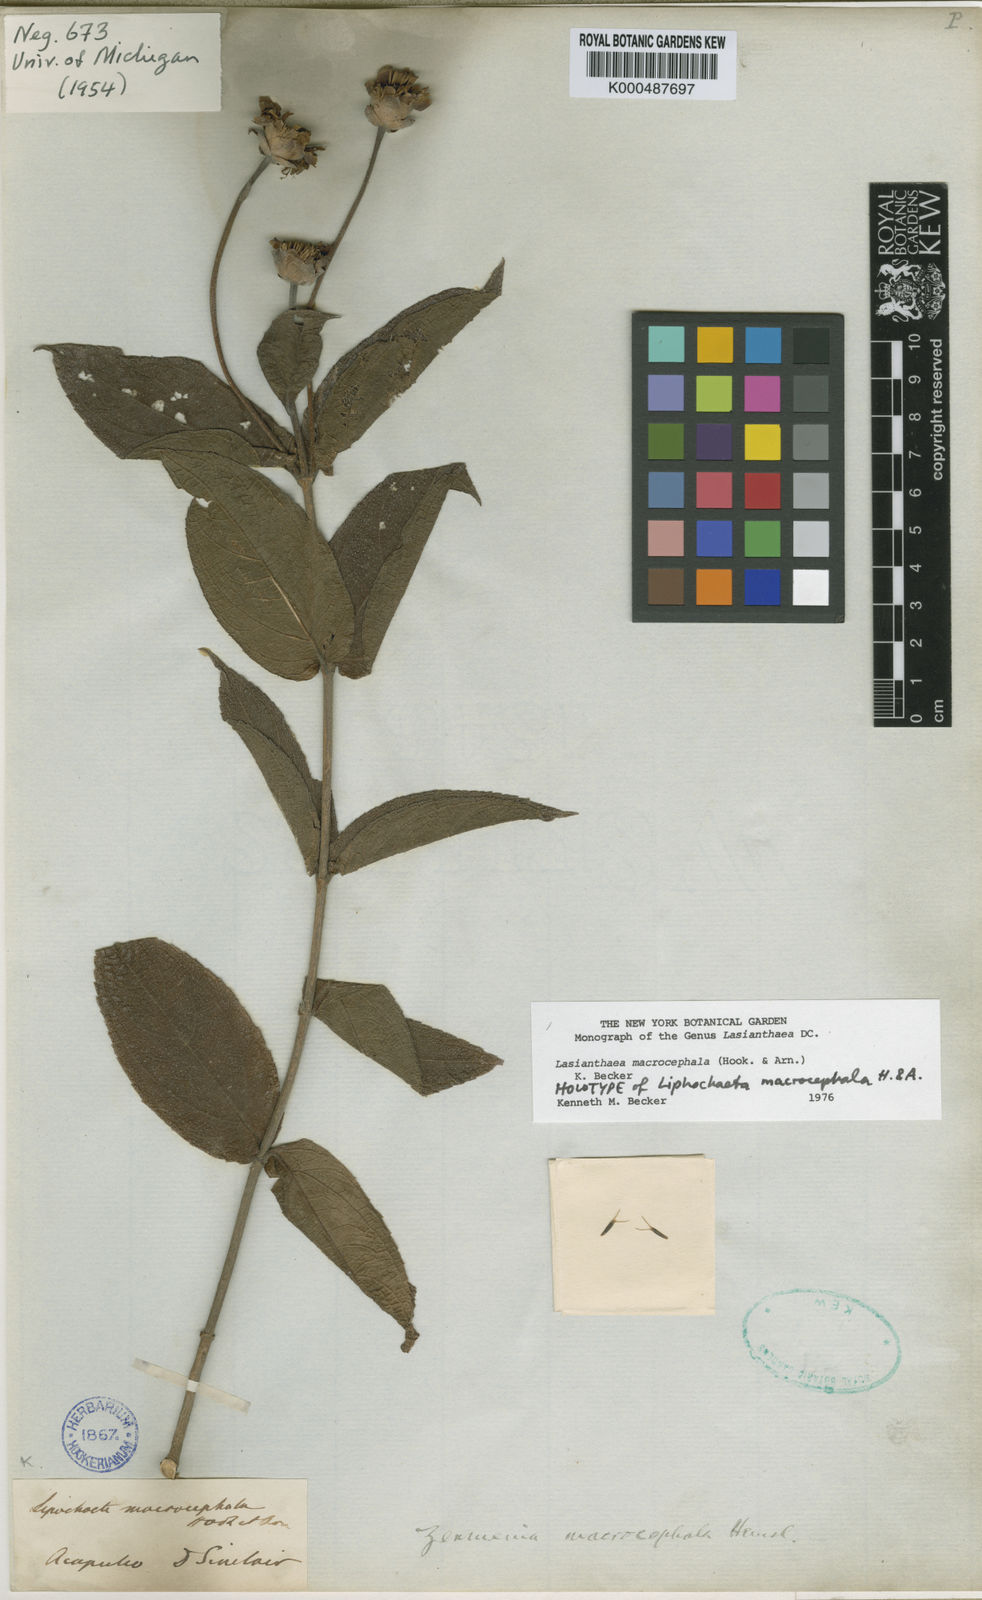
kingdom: Plantae
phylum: Tracheophyta
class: Magnoliopsida
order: Asterales
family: Asteraceae
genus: Lasianthaea
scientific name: Lasianthaea macrocephala
